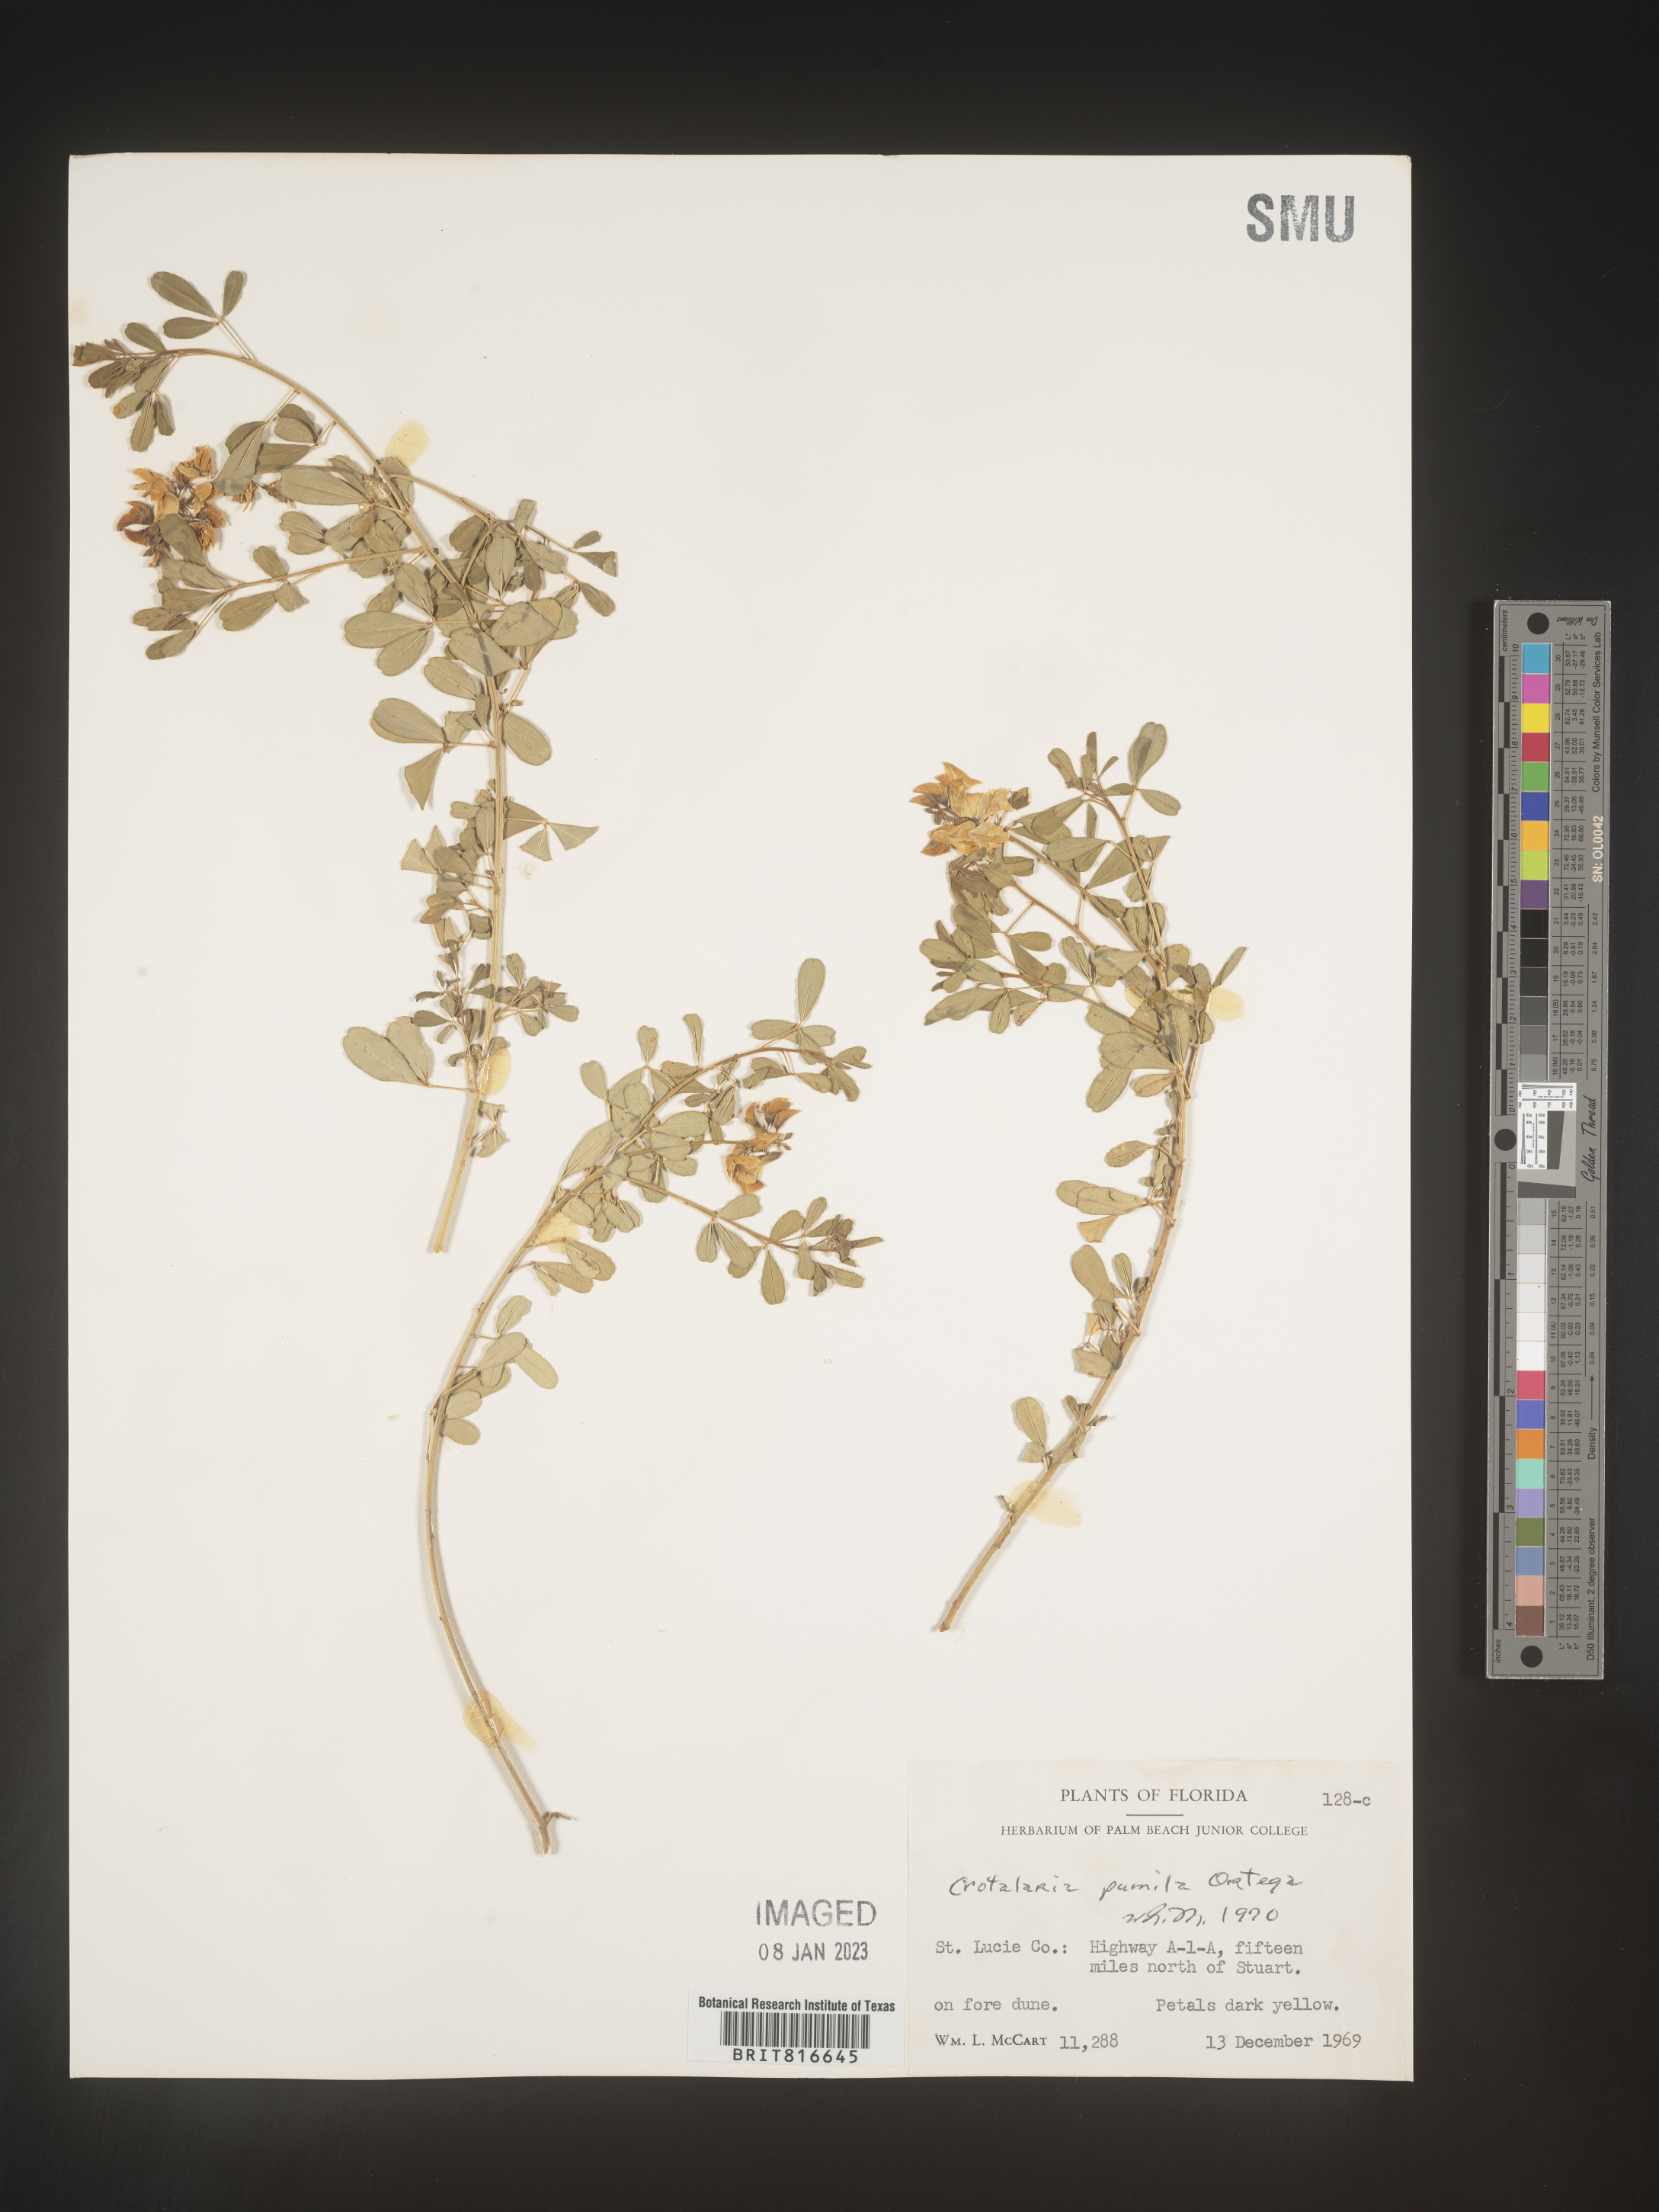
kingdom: Plantae
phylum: Tracheophyta
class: Magnoliopsida
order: Fabales
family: Fabaceae
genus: Crotalaria
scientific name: Crotalaria pumila
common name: Low rattlebox
